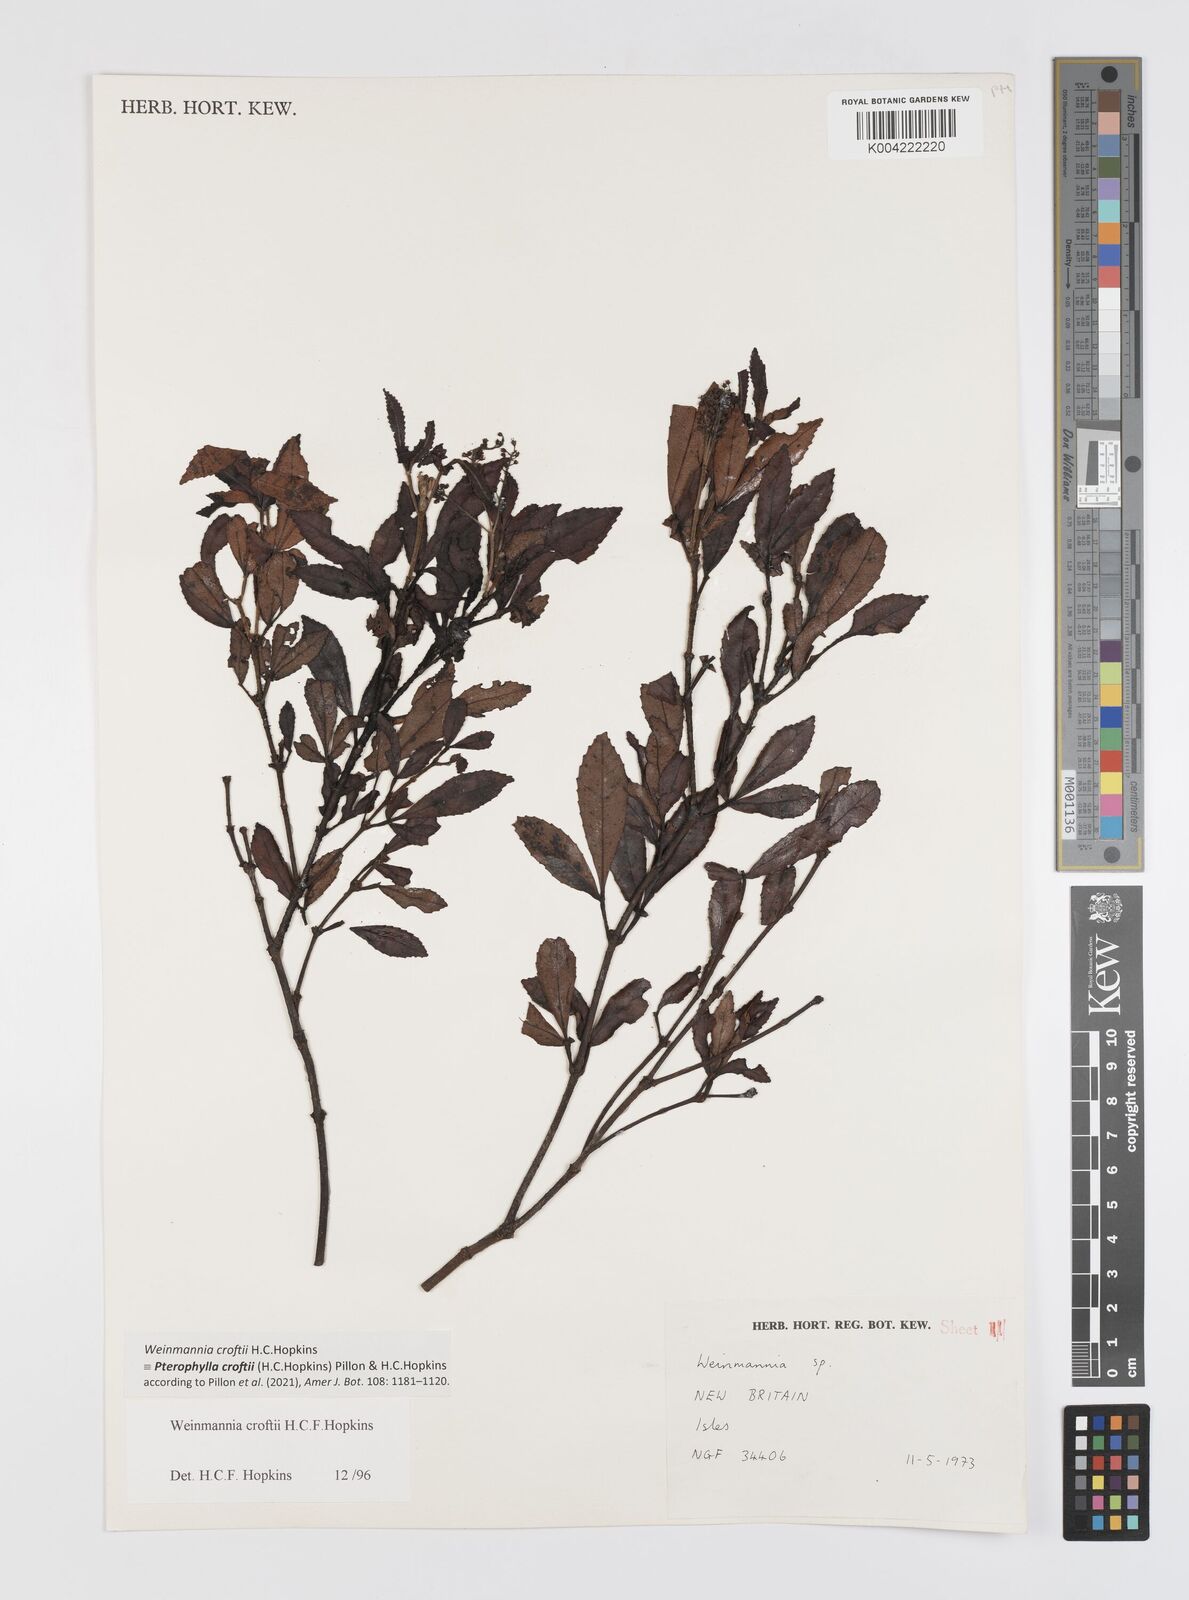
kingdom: Plantae
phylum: Tracheophyta
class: Magnoliopsida
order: Oxalidales
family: Cunoniaceae
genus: Pterophylla
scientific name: Pterophylla croftii
